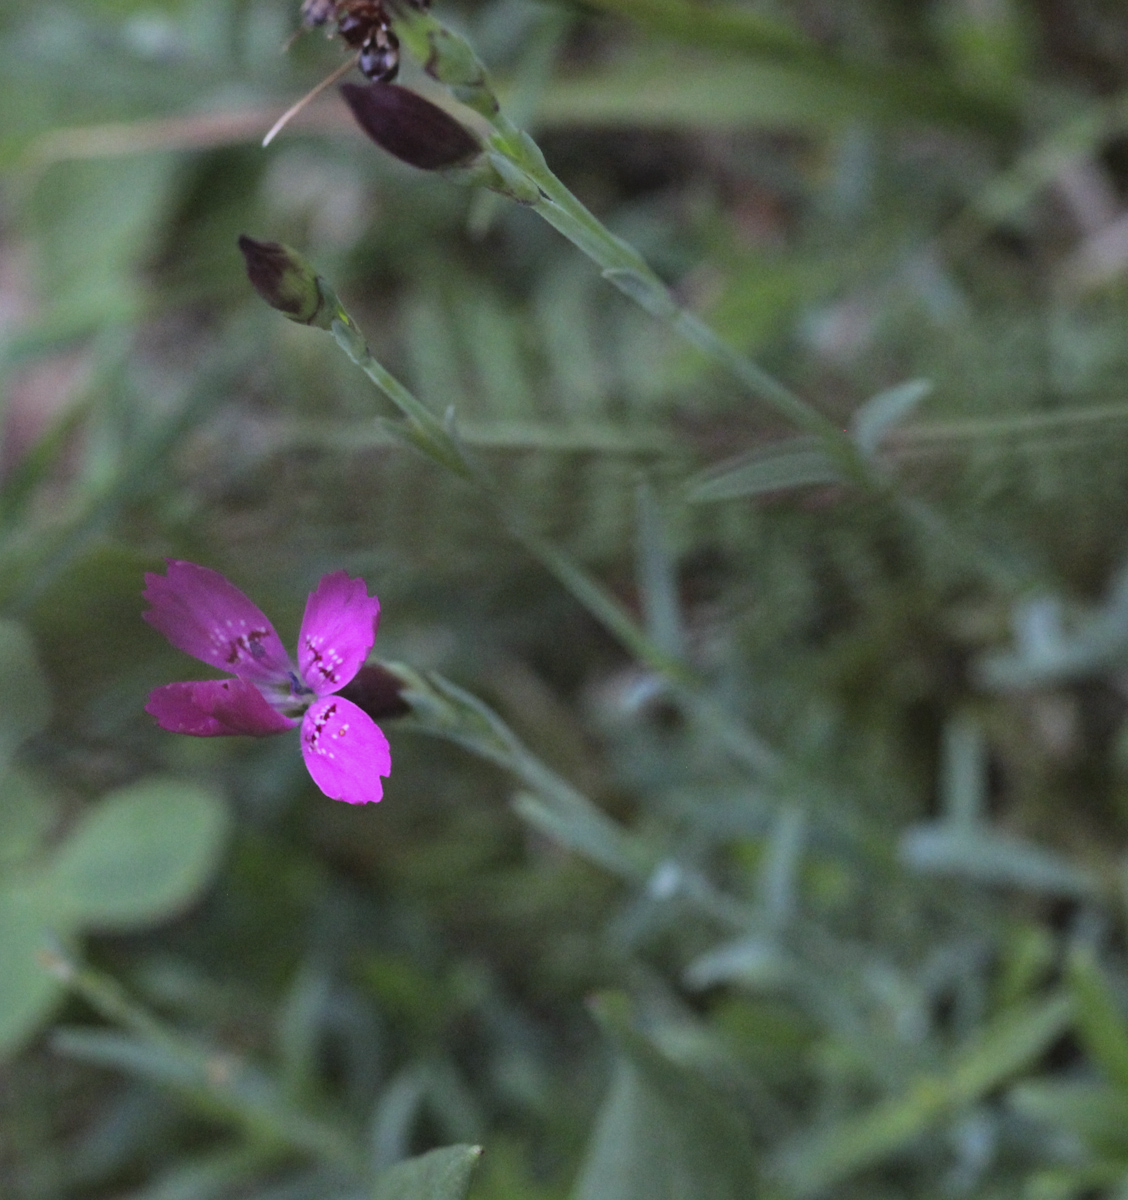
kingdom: Plantae
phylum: Tracheophyta
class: Magnoliopsida
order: Caryophyllales
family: Caryophyllaceae
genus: Dianthus
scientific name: Dianthus deltoides
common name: Maiden pink
